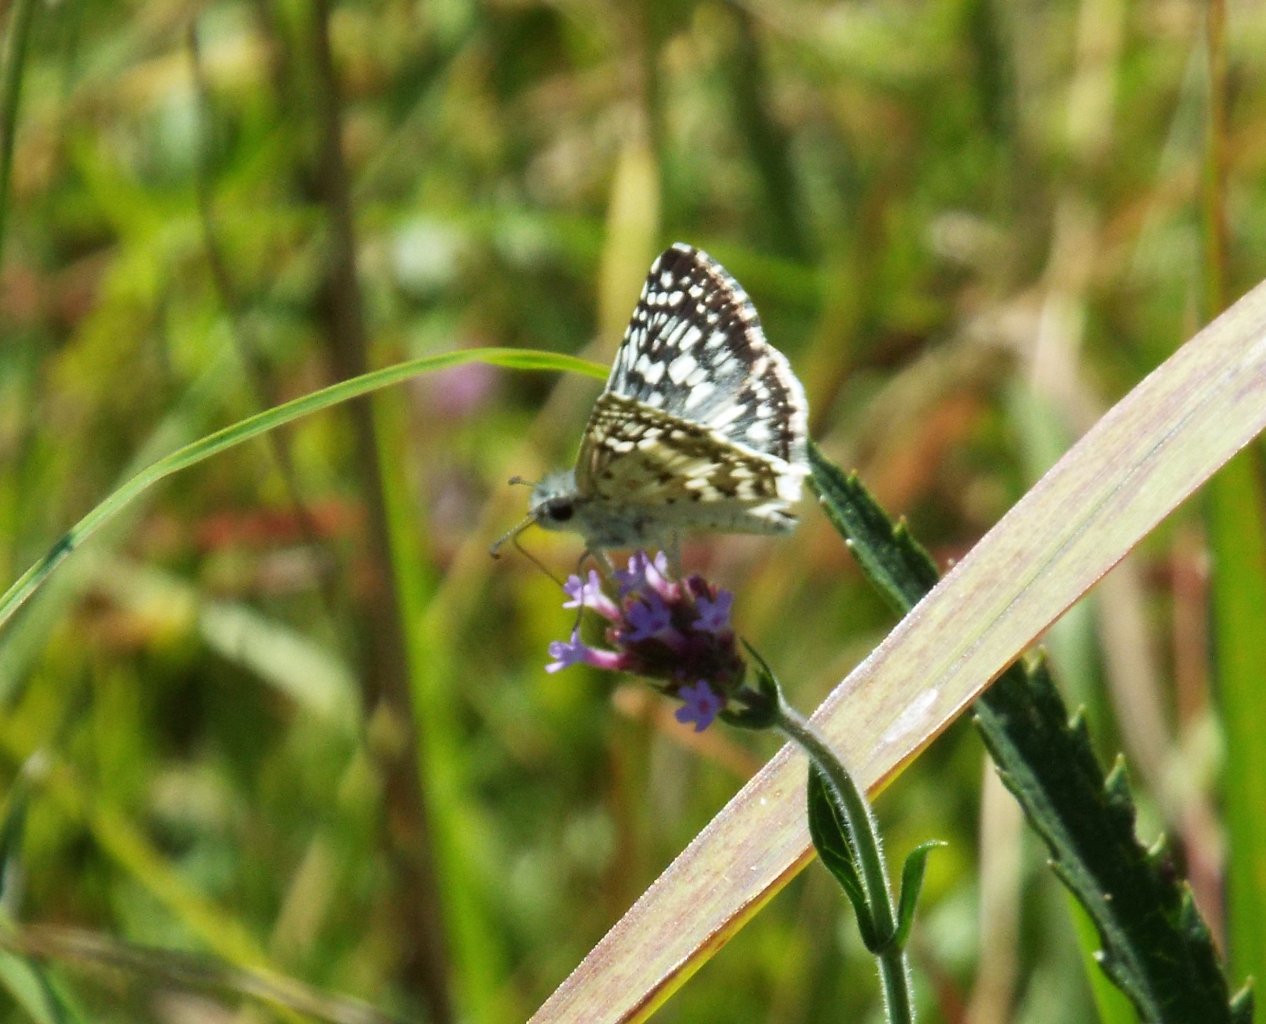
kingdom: Animalia
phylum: Arthropoda
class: Insecta
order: Lepidoptera
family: Hesperiidae
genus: Pyrgus
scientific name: Pyrgus communis
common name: White Checkered-Skipper
